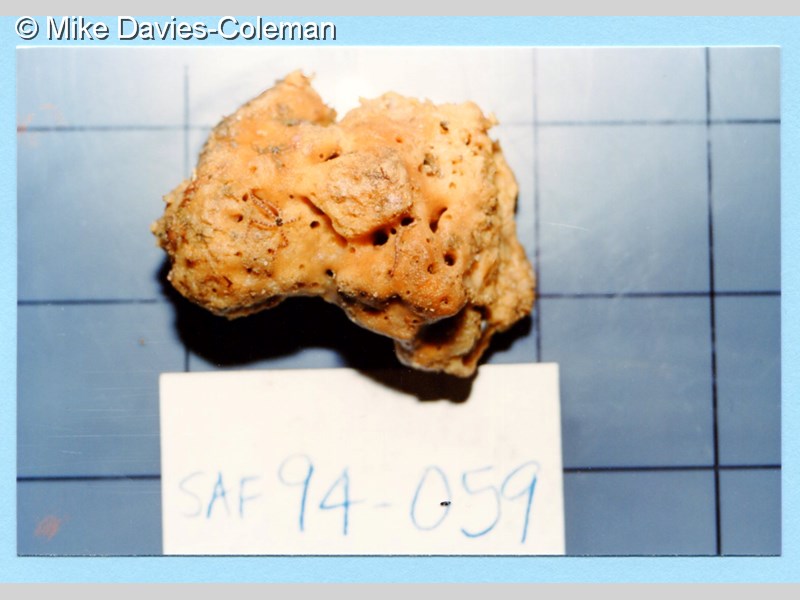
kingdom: Animalia
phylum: Porifera
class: Demospongiae
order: Suberitida
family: Halichondriidae
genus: Hymeniacidon
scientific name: Hymeniacidon
